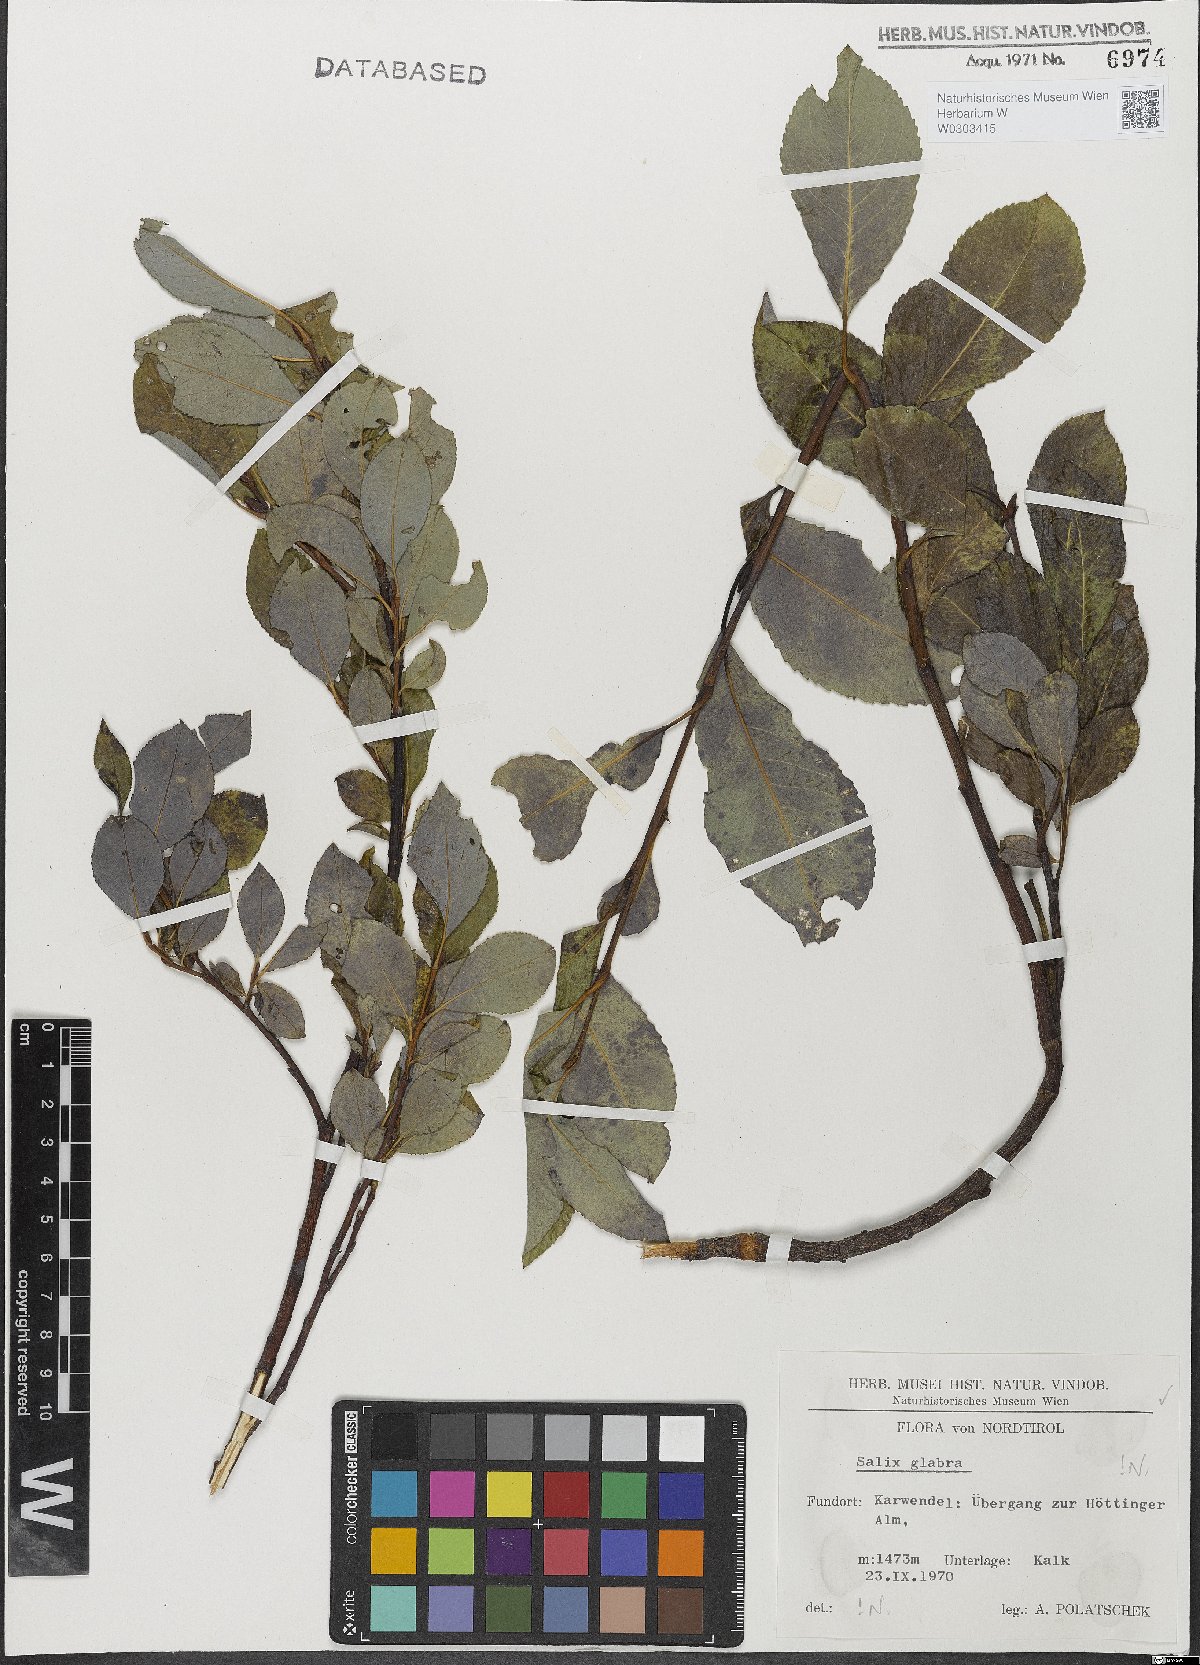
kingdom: Plantae
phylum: Tracheophyta
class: Magnoliopsida
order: Malpighiales
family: Salicaceae
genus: Salix
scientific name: Salix glabra
